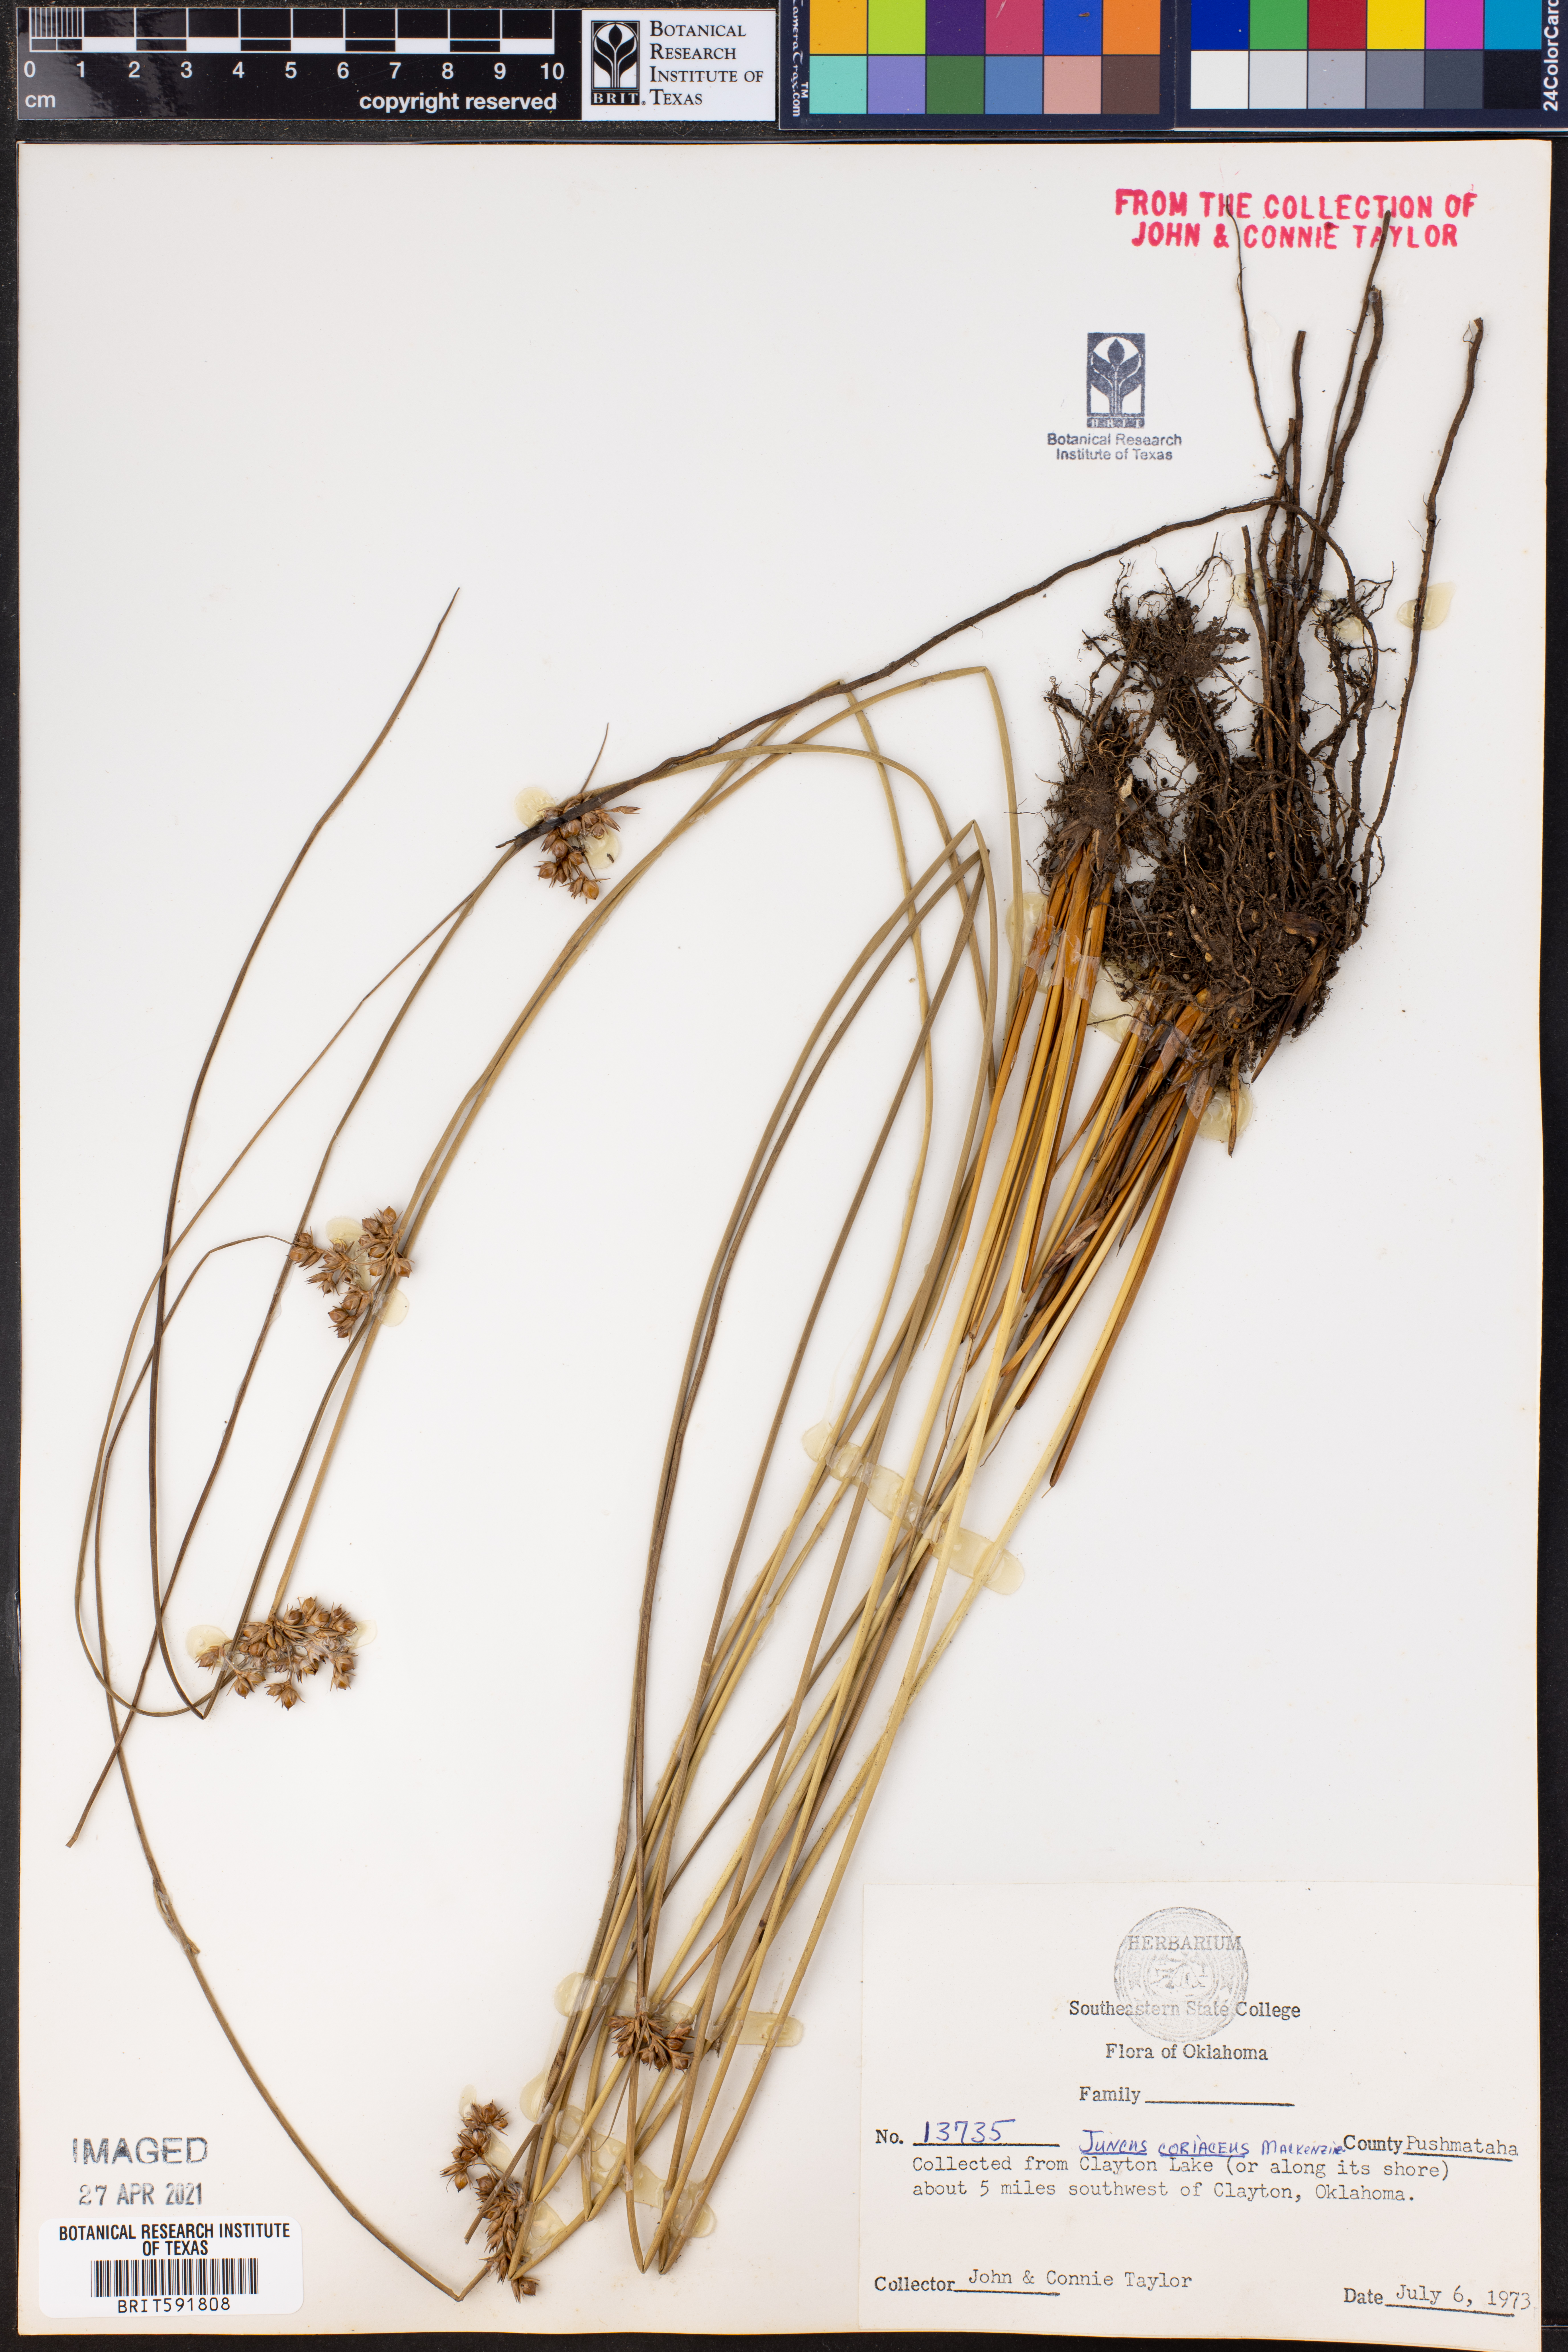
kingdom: Plantae
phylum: Tracheophyta
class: Liliopsida
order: Poales
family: Juncaceae
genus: Juncus
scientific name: Juncus coriaceus
